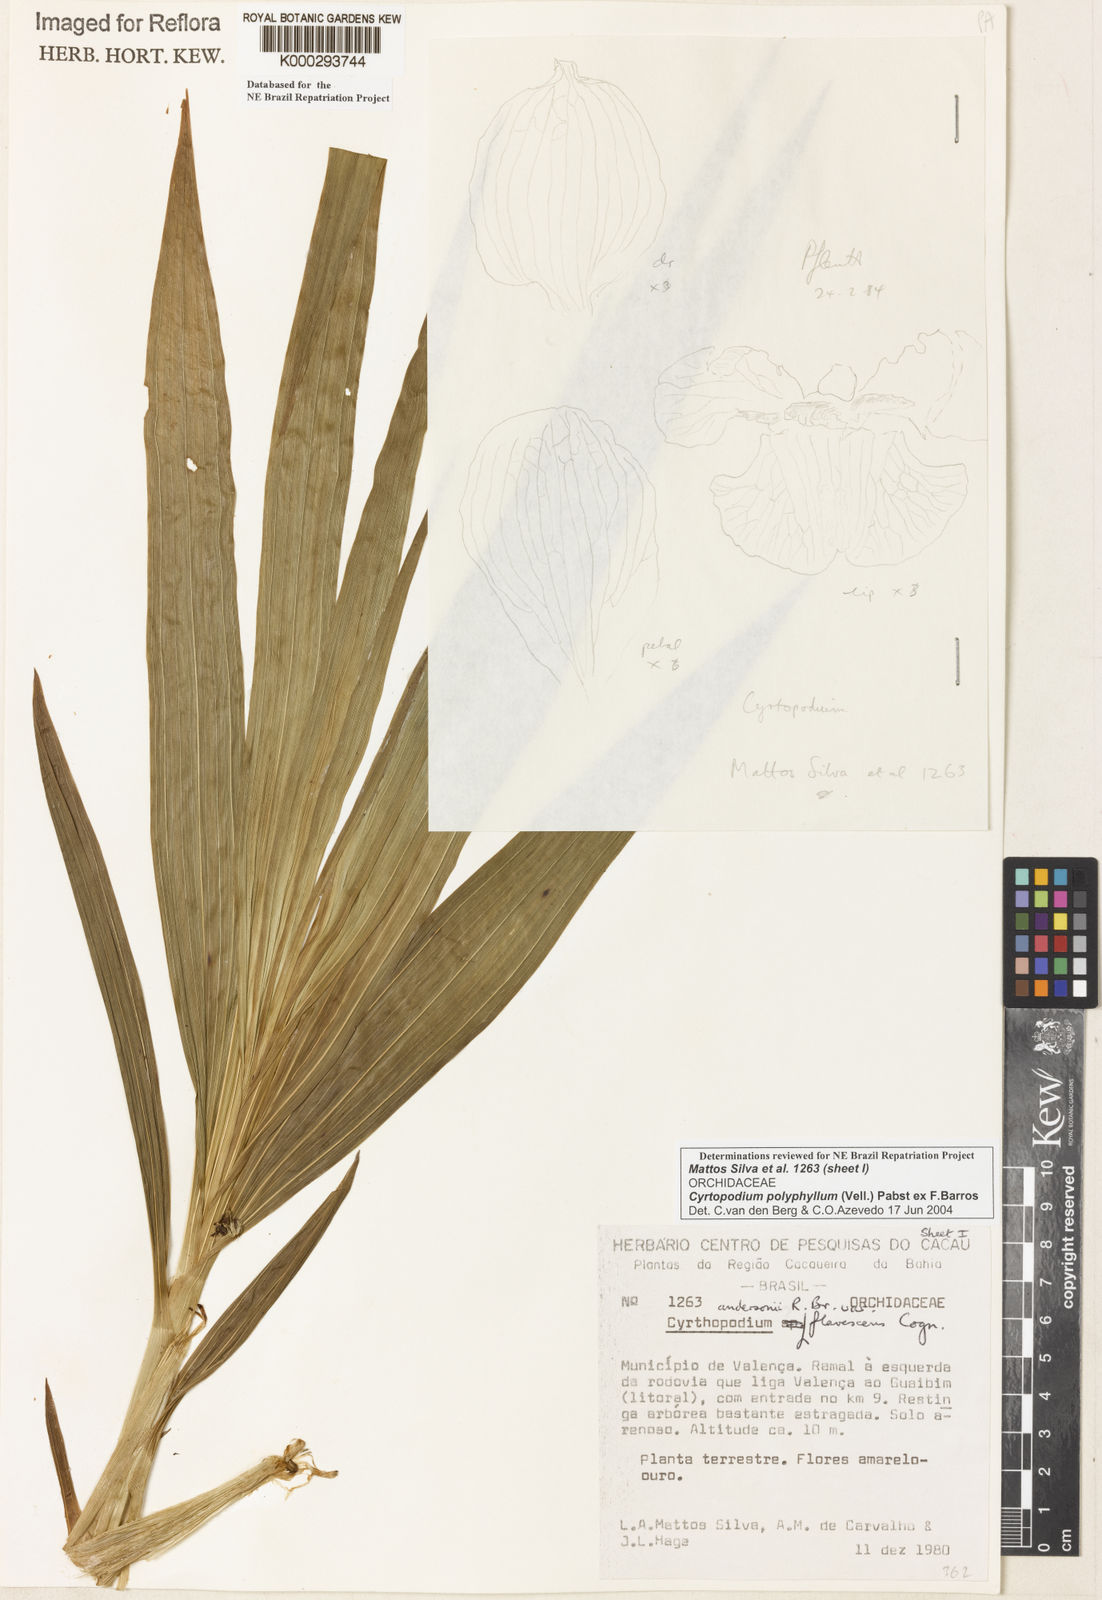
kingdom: Plantae
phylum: Tracheophyta
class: Liliopsida
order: Asparagales
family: Orchidaceae
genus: Cyrtopodium
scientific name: Cyrtopodium flavum
